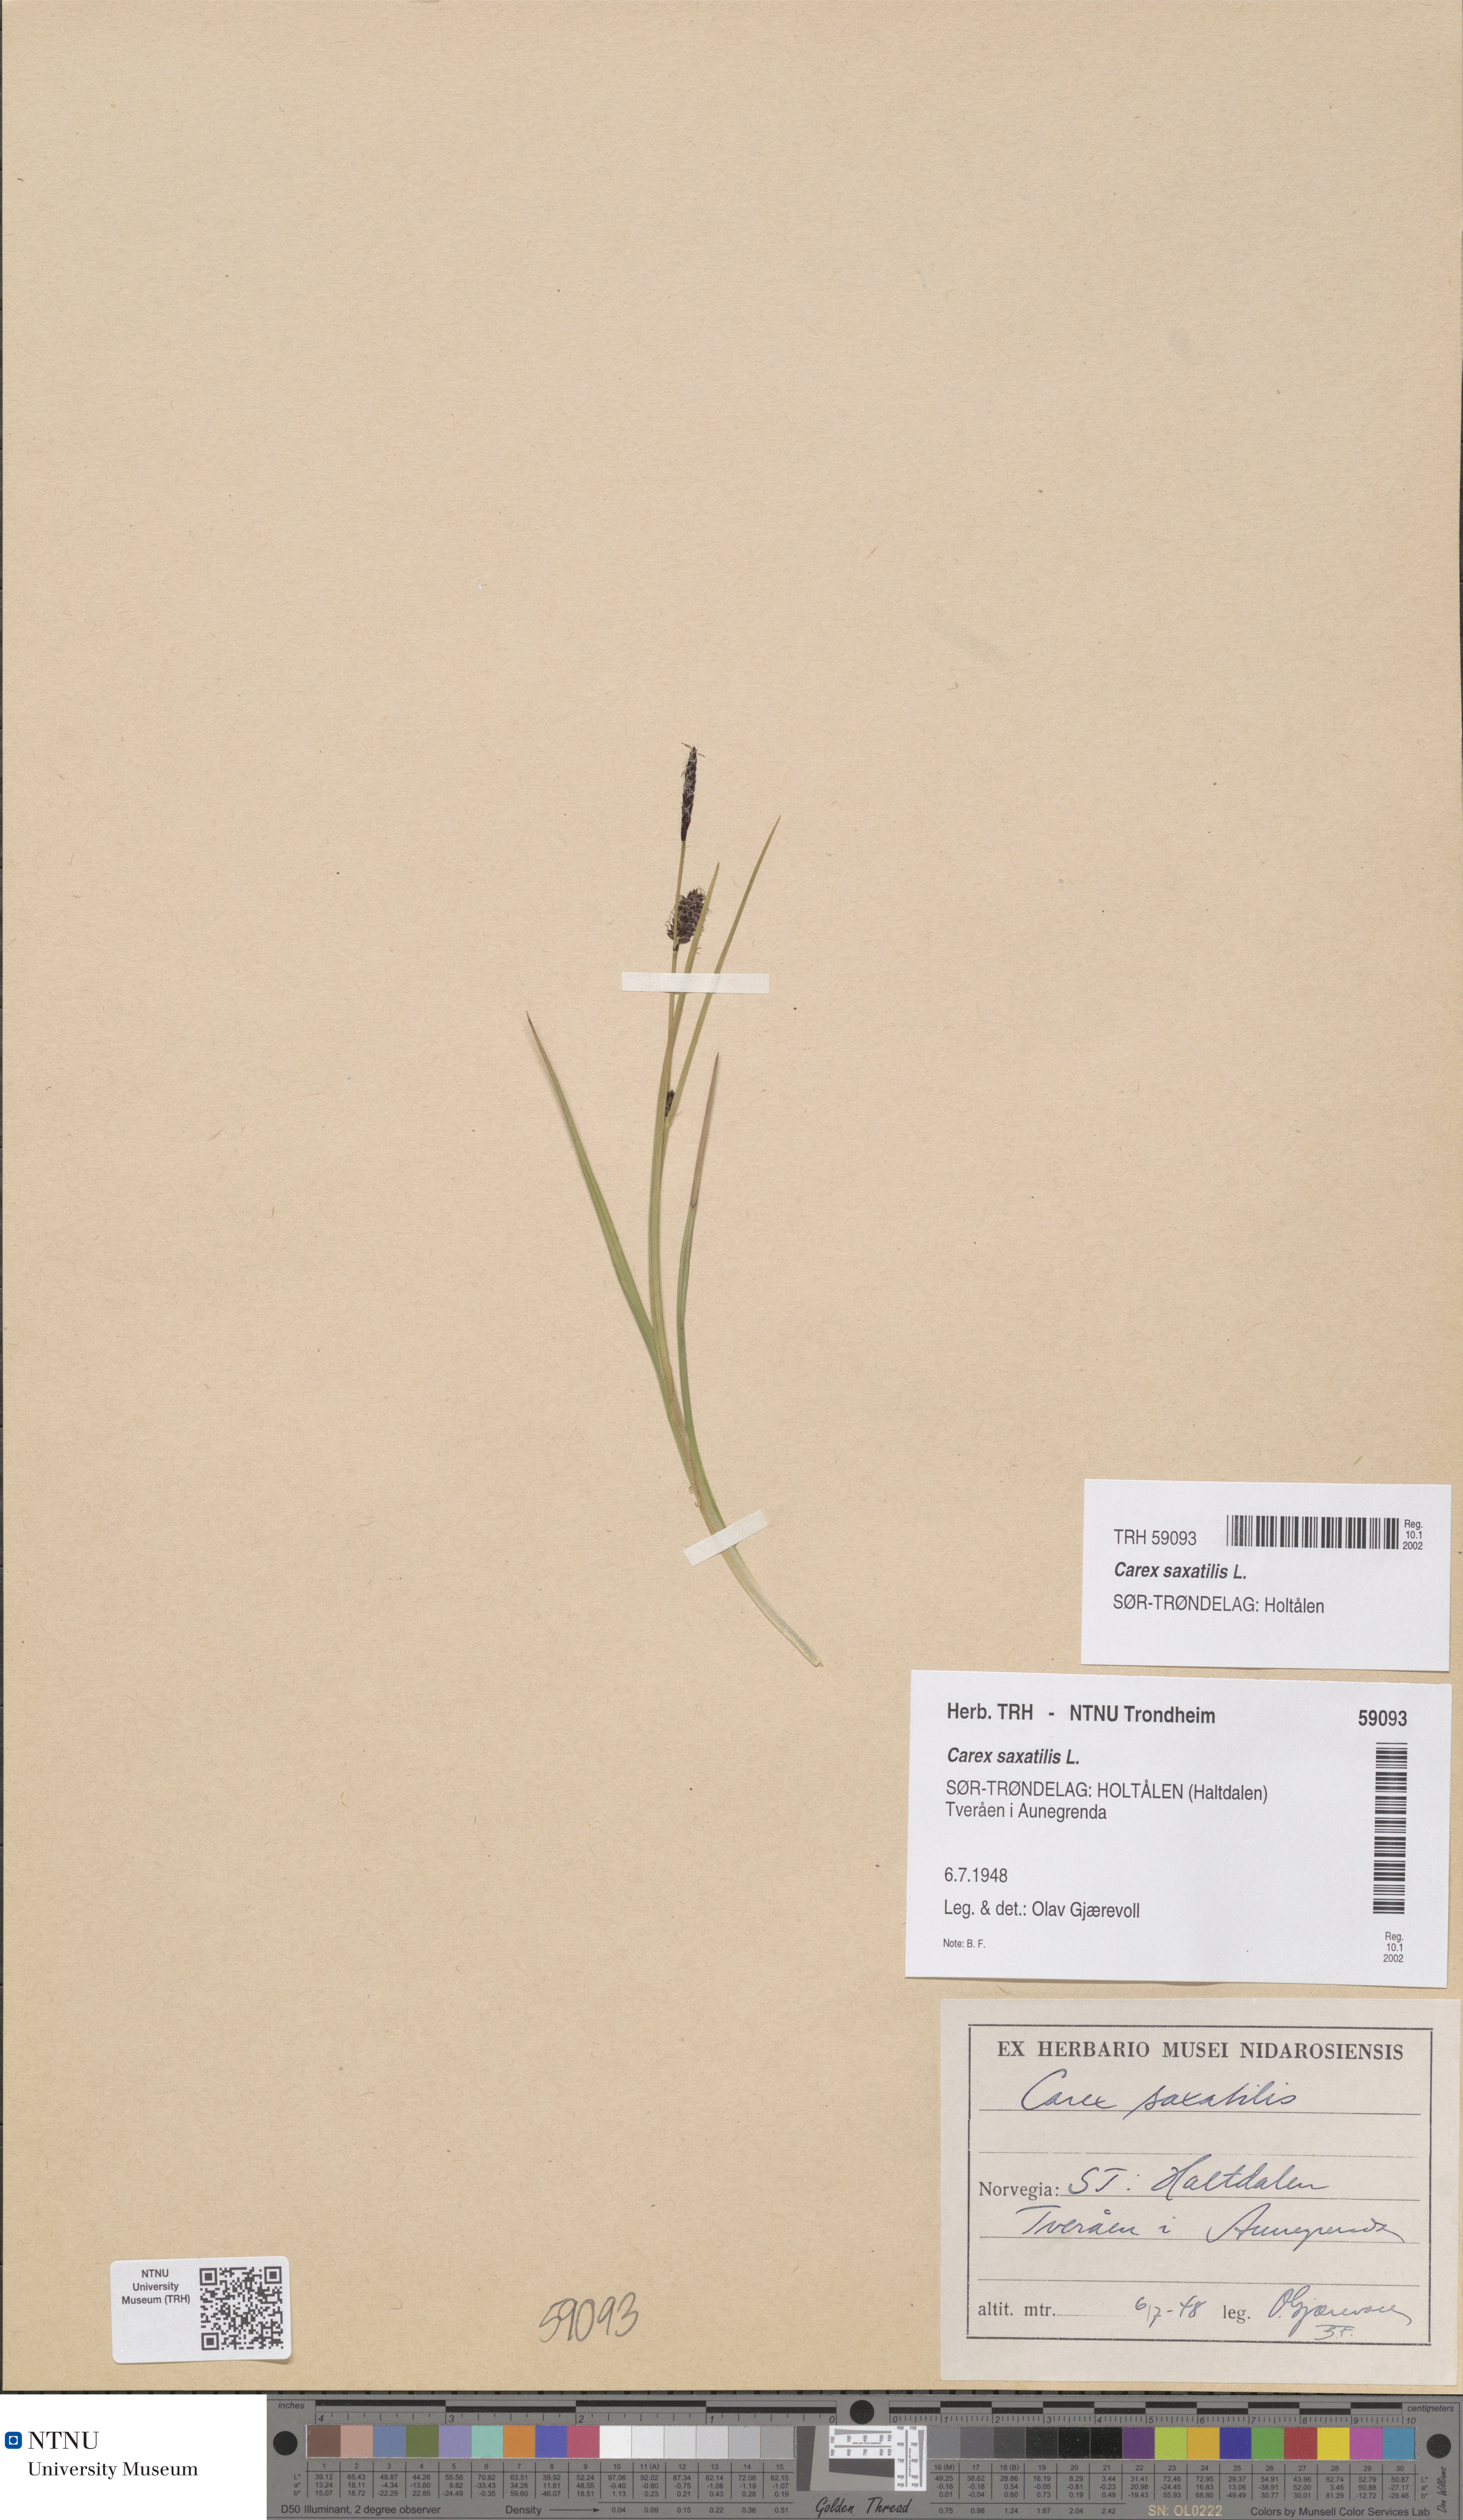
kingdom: Plantae
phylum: Tracheophyta
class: Liliopsida
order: Poales
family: Cyperaceae
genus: Carex
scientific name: Carex saxatilis
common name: Russet sedge
